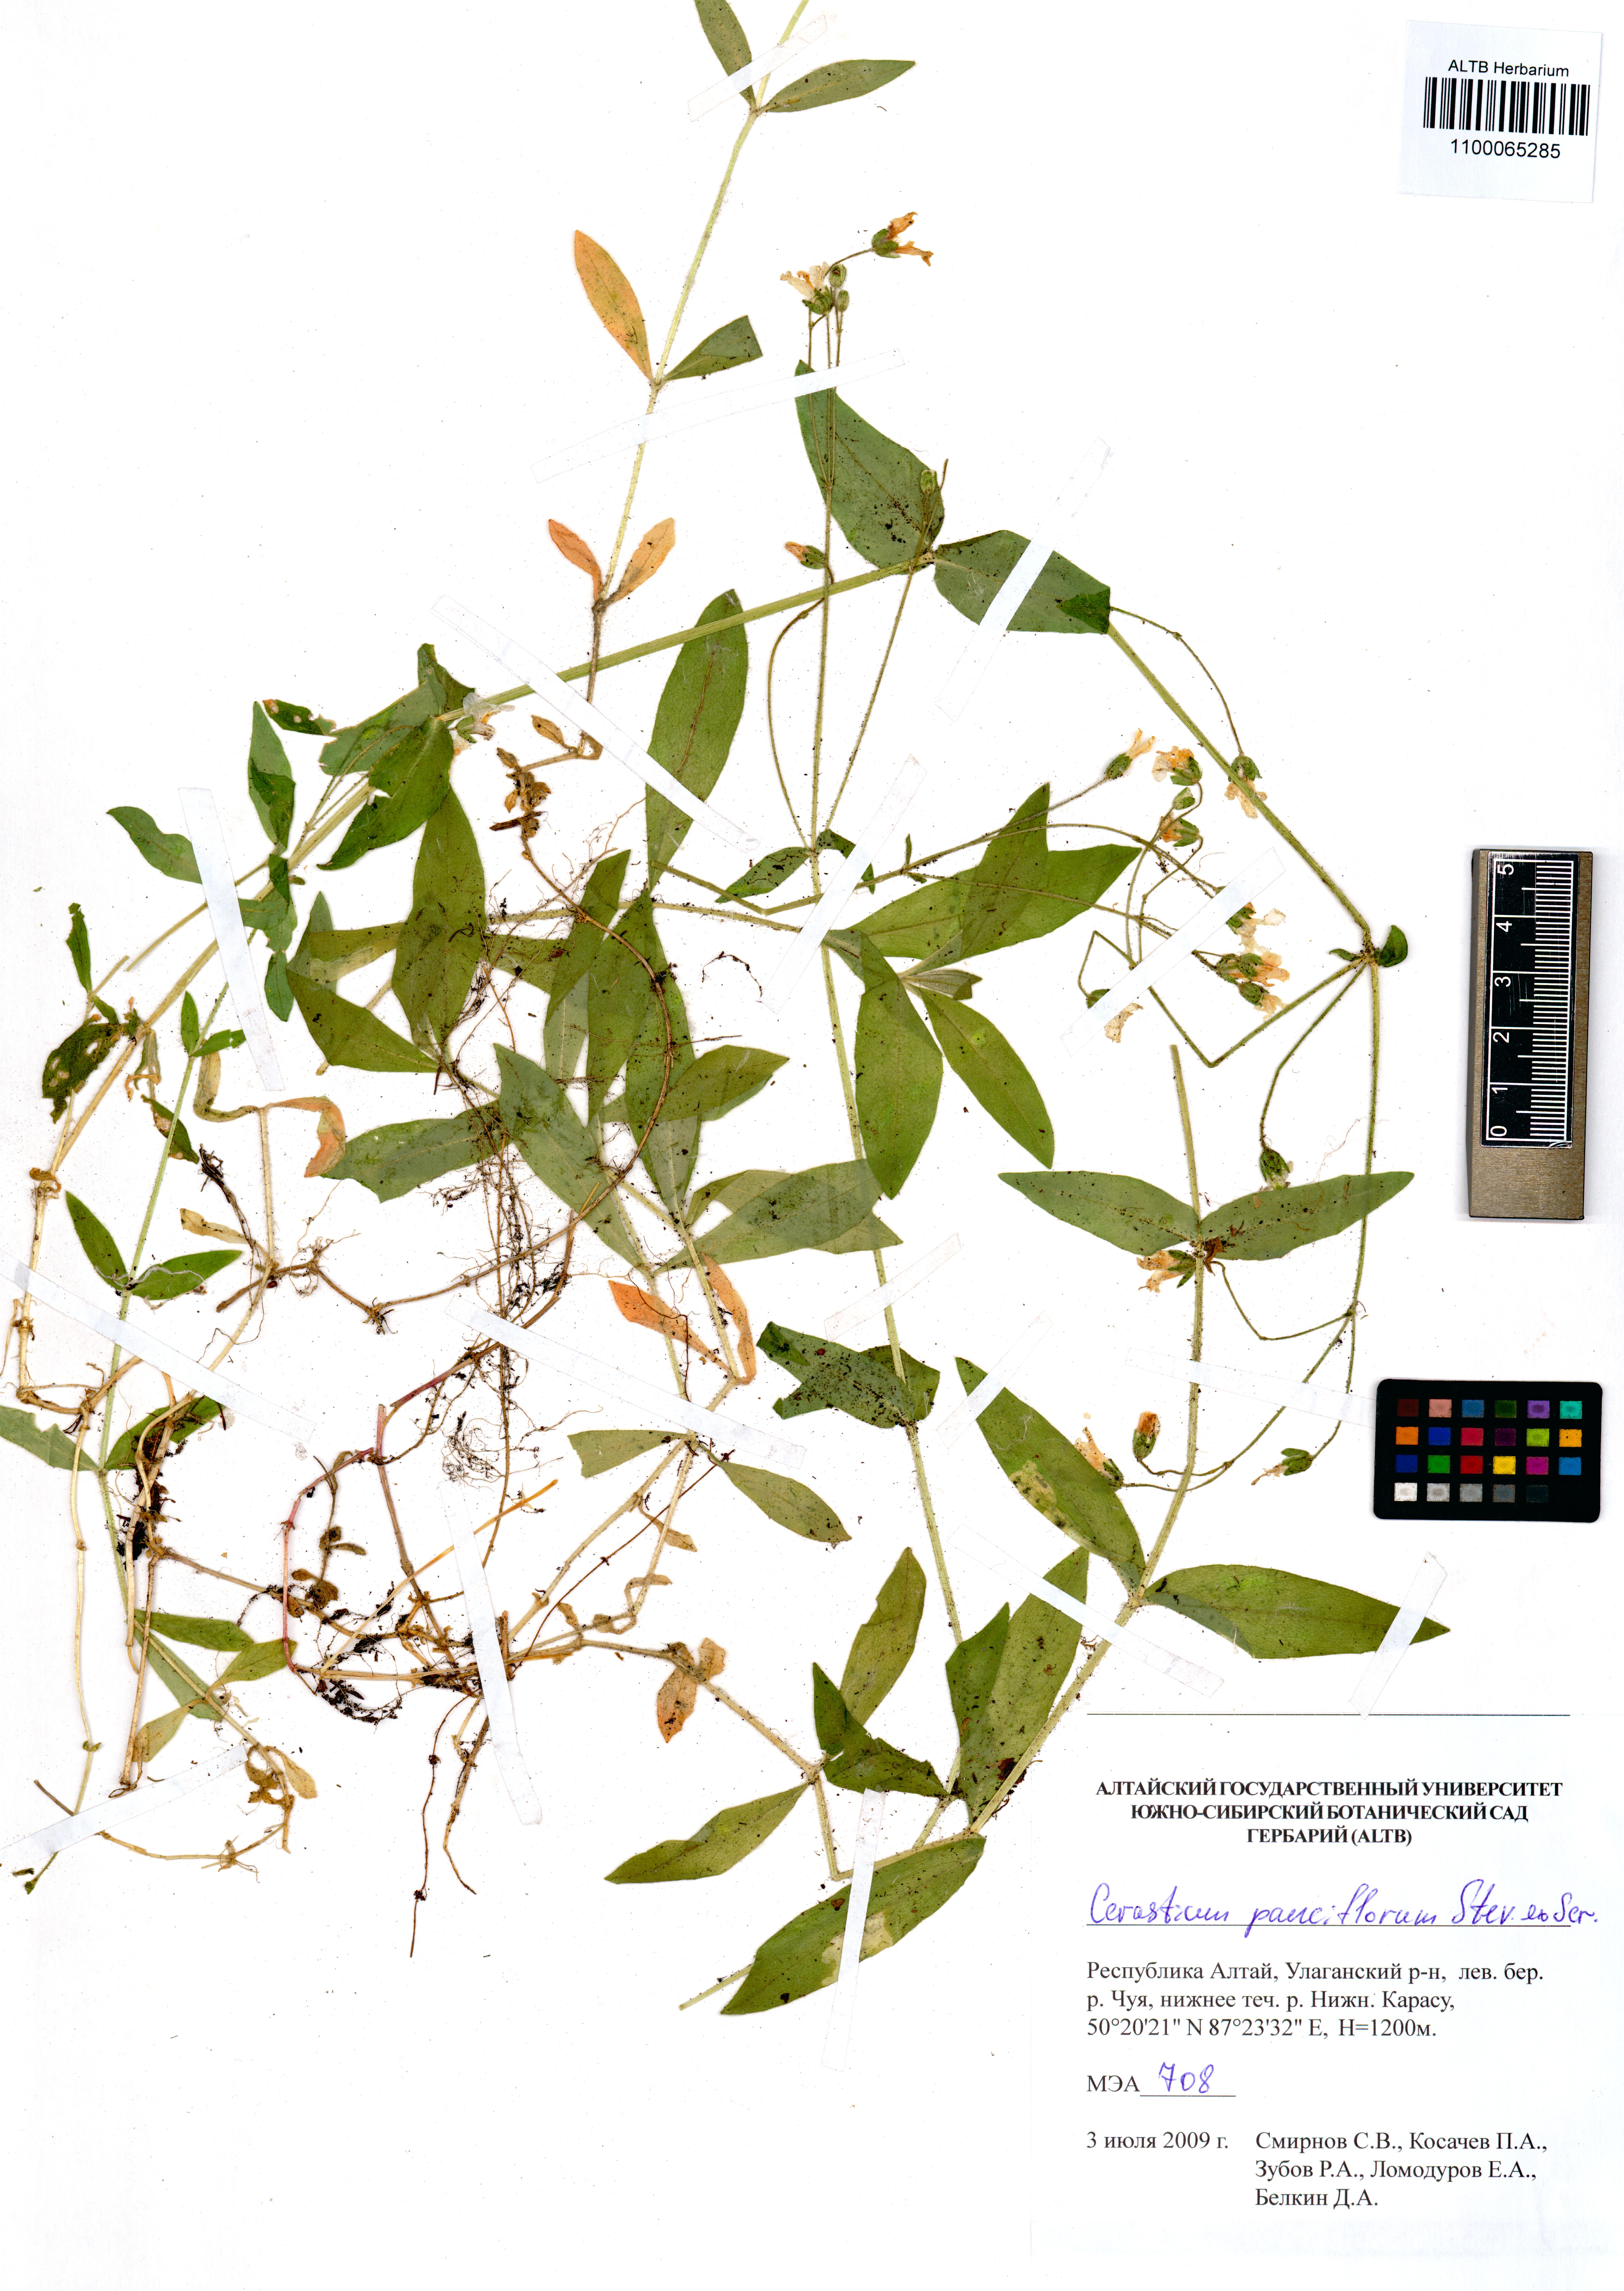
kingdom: Plantae
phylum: Tracheophyta
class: Magnoliopsida
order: Caryophyllales
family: Caryophyllaceae
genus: Cerastium
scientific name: Cerastium pauciflorum
